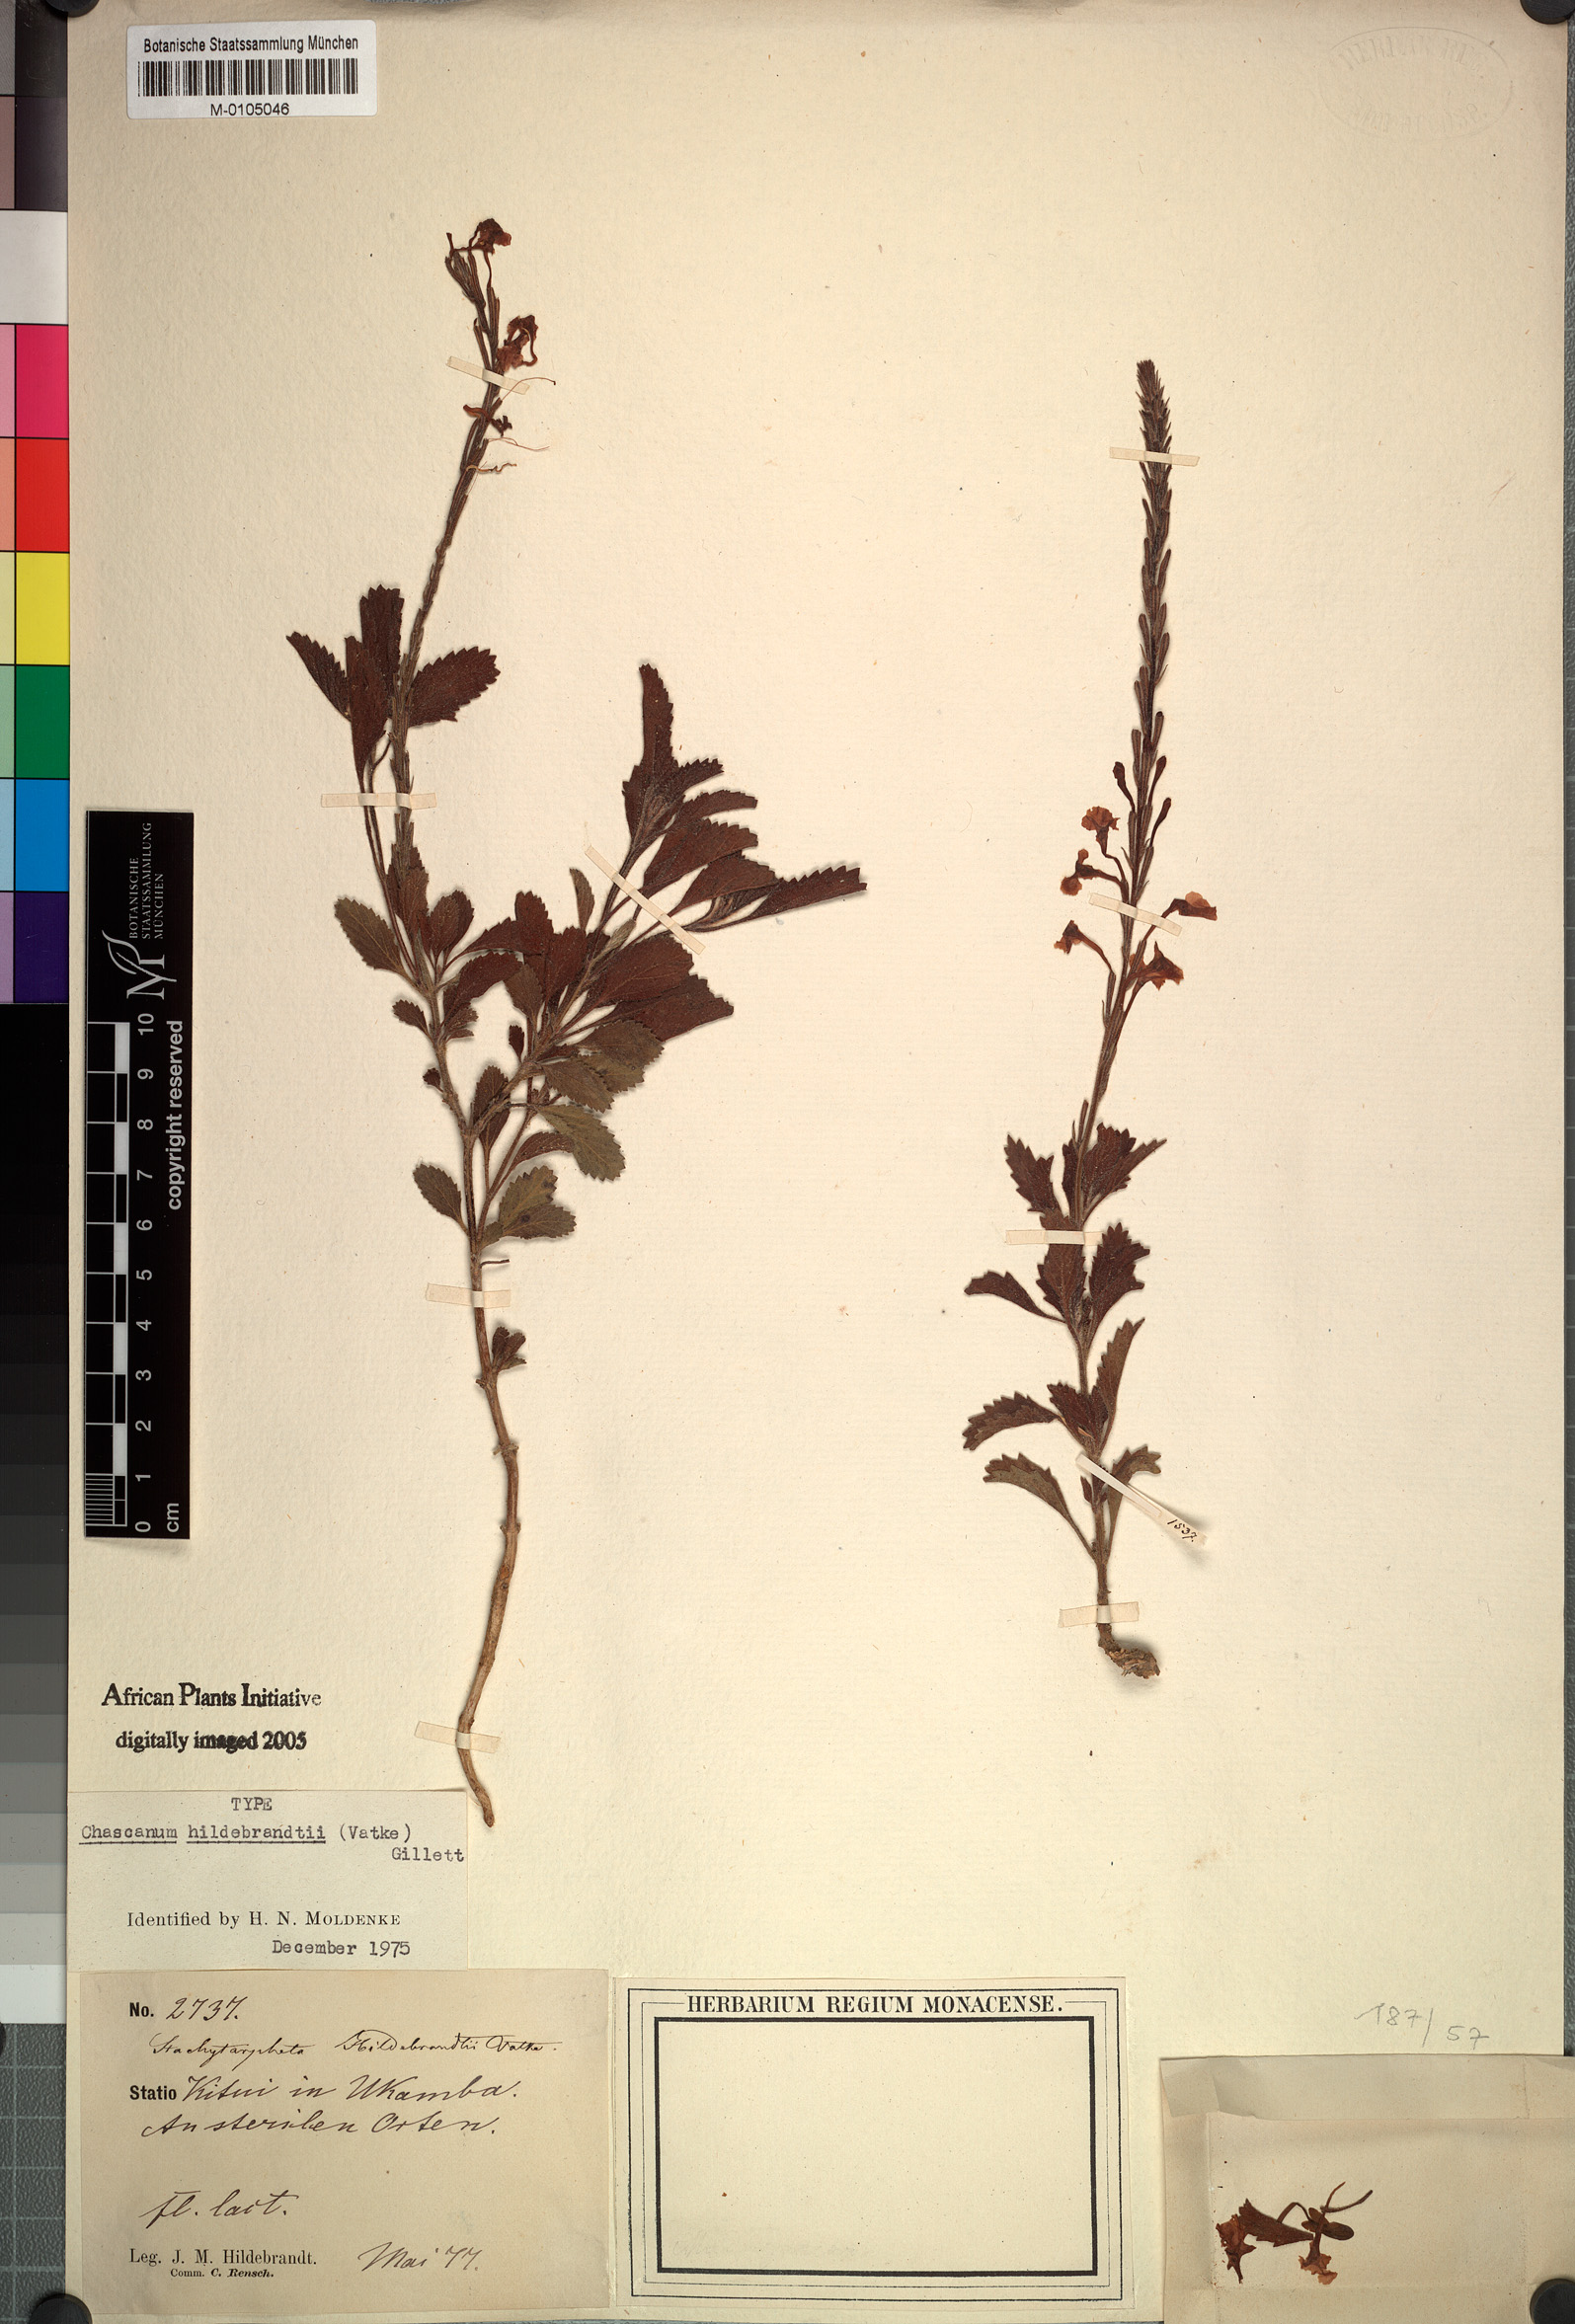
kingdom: Plantae
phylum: Tracheophyta
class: Magnoliopsida
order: Lamiales
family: Verbenaceae
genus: Chascanum
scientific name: Chascanum hildebrandtii
